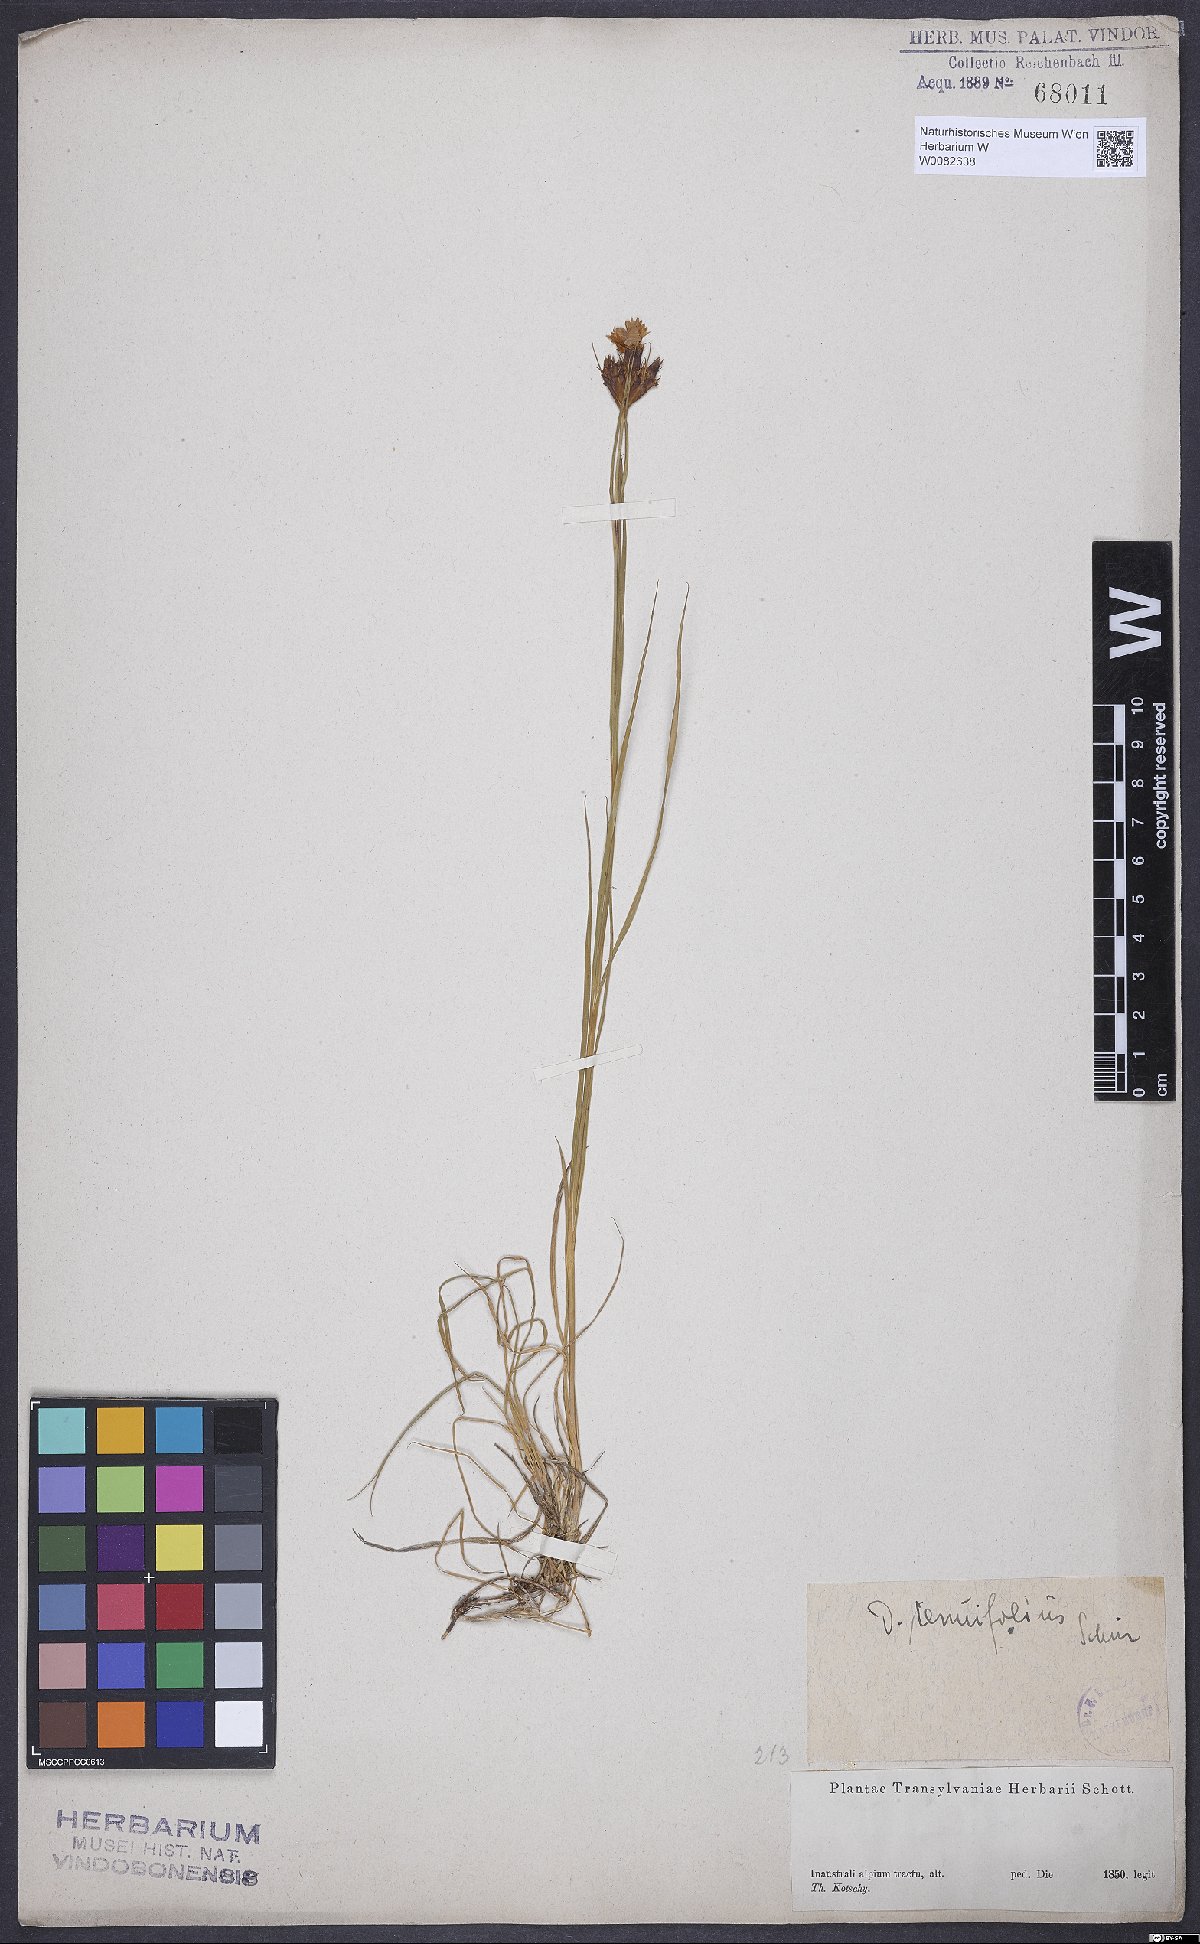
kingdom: Plantae
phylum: Tracheophyta
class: Magnoliopsida
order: Caryophyllales
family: Caryophyllaceae
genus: Dianthus
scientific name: Dianthus carthusianorum
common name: Carthusian pink
